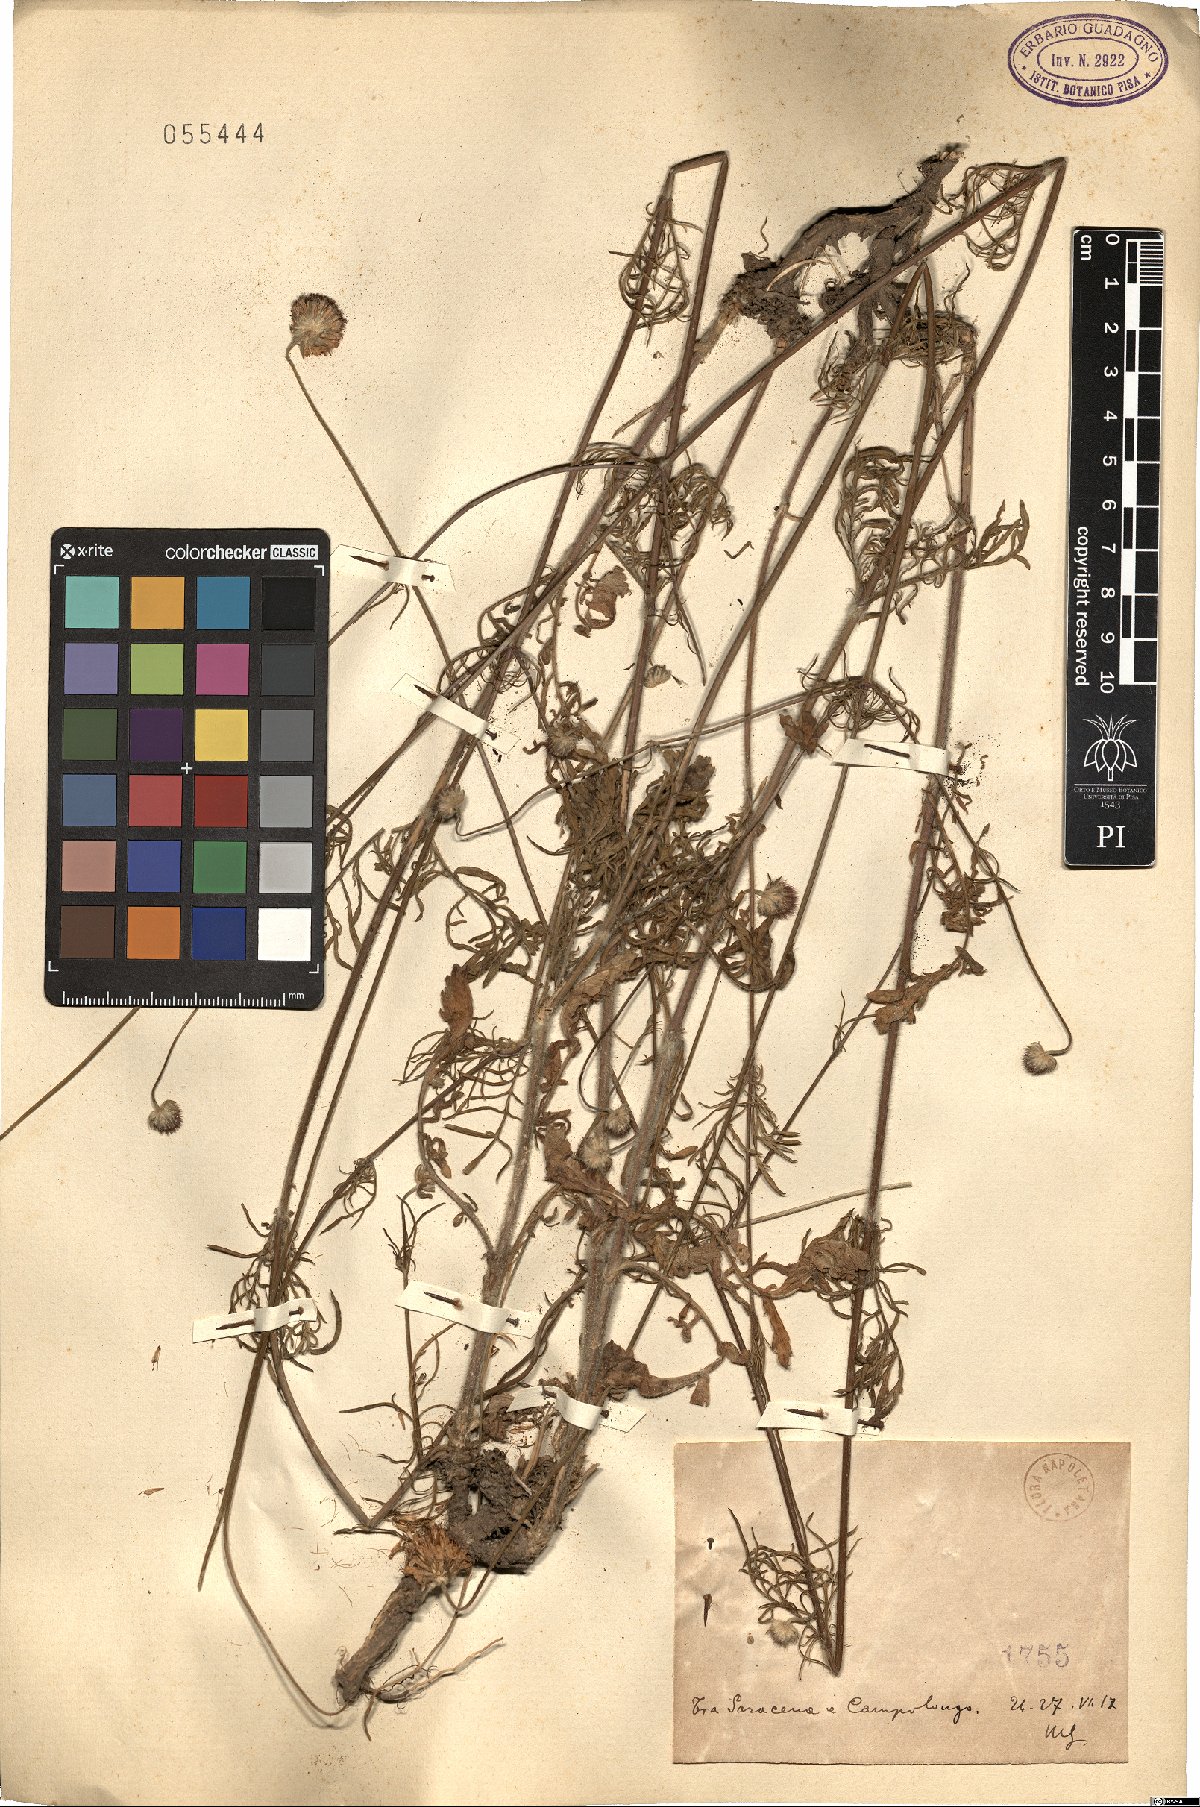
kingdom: Plantae
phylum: Tracheophyta
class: Magnoliopsida
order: Dipsacales
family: Caprifoliaceae
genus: Scabiosa
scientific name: Scabiosa
